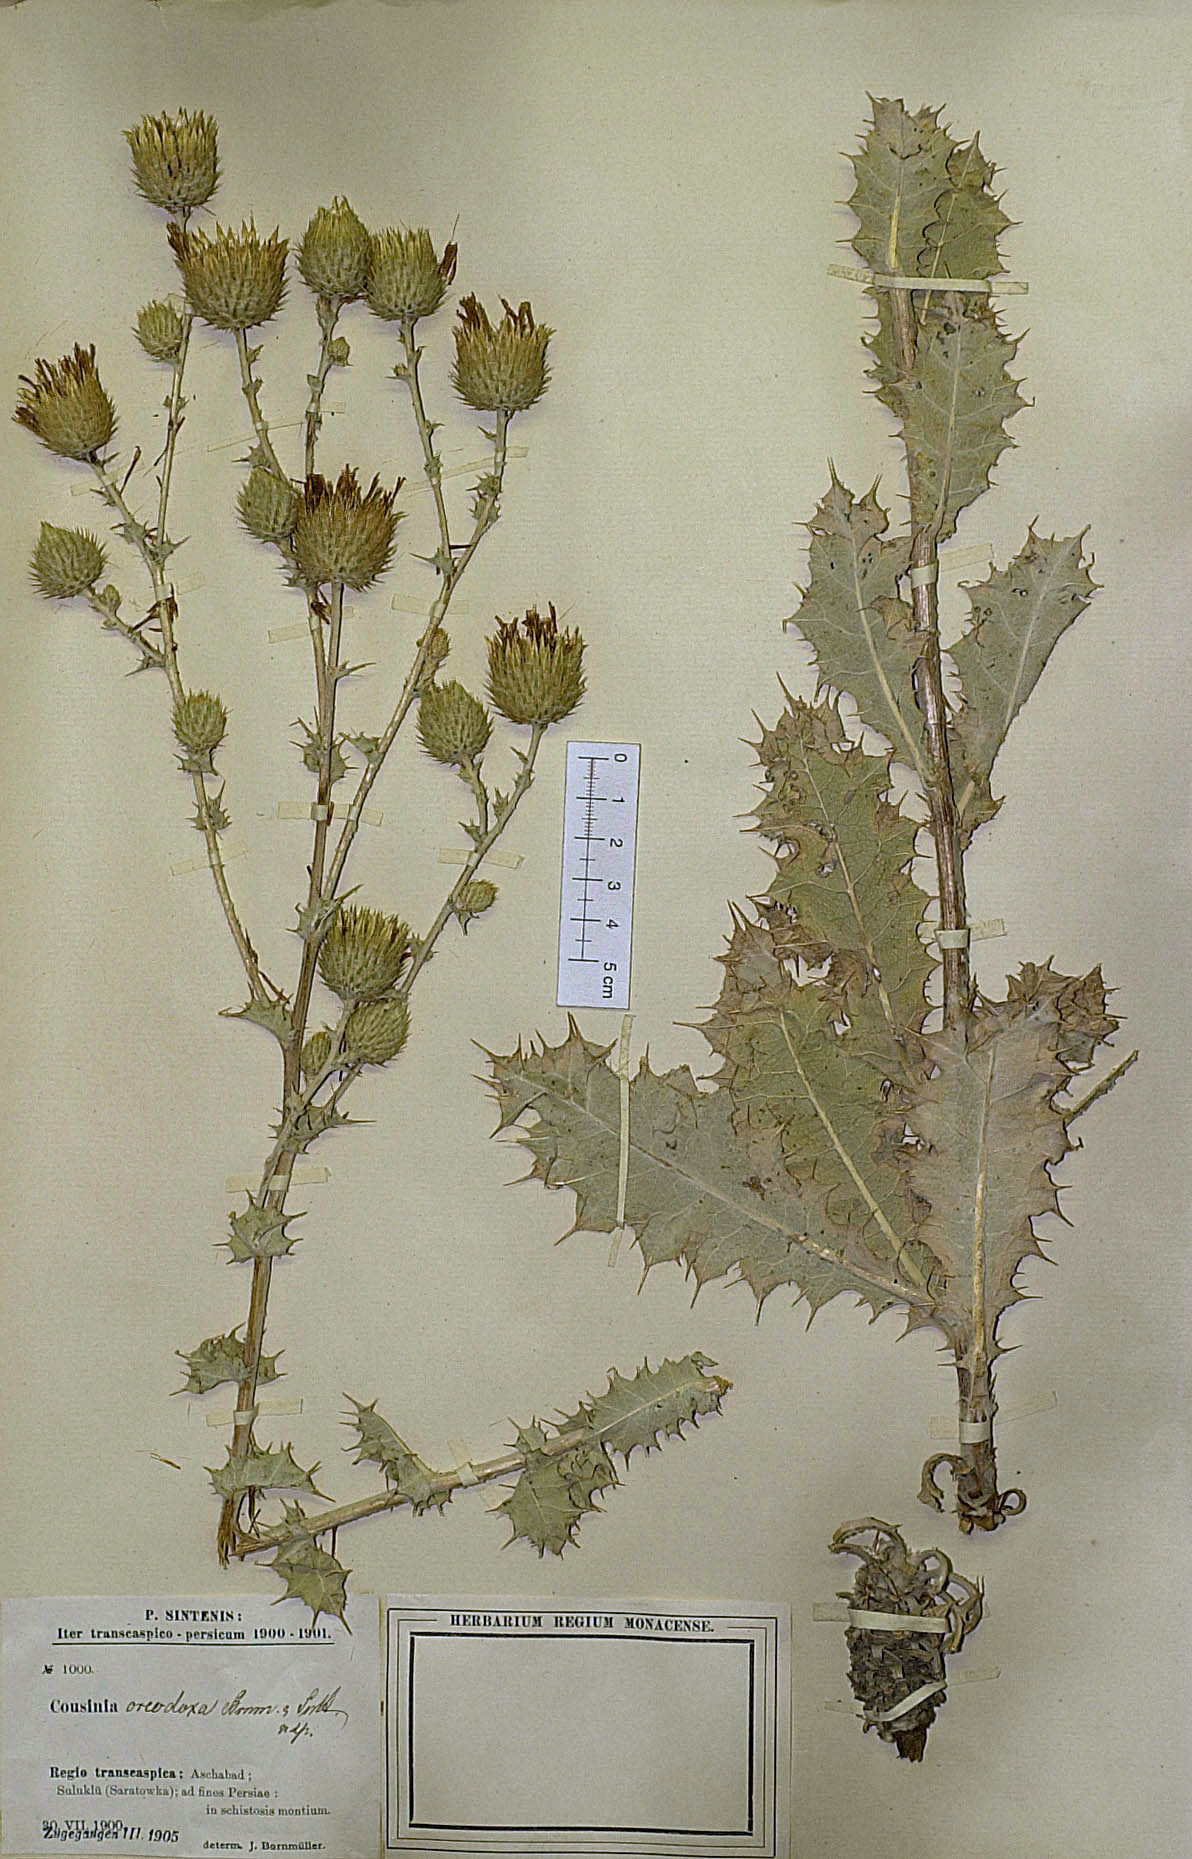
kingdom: Plantae
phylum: Tracheophyta
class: Magnoliopsida
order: Asterales
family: Asteraceae
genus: Cousinia
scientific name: Cousinia oreodoxa
